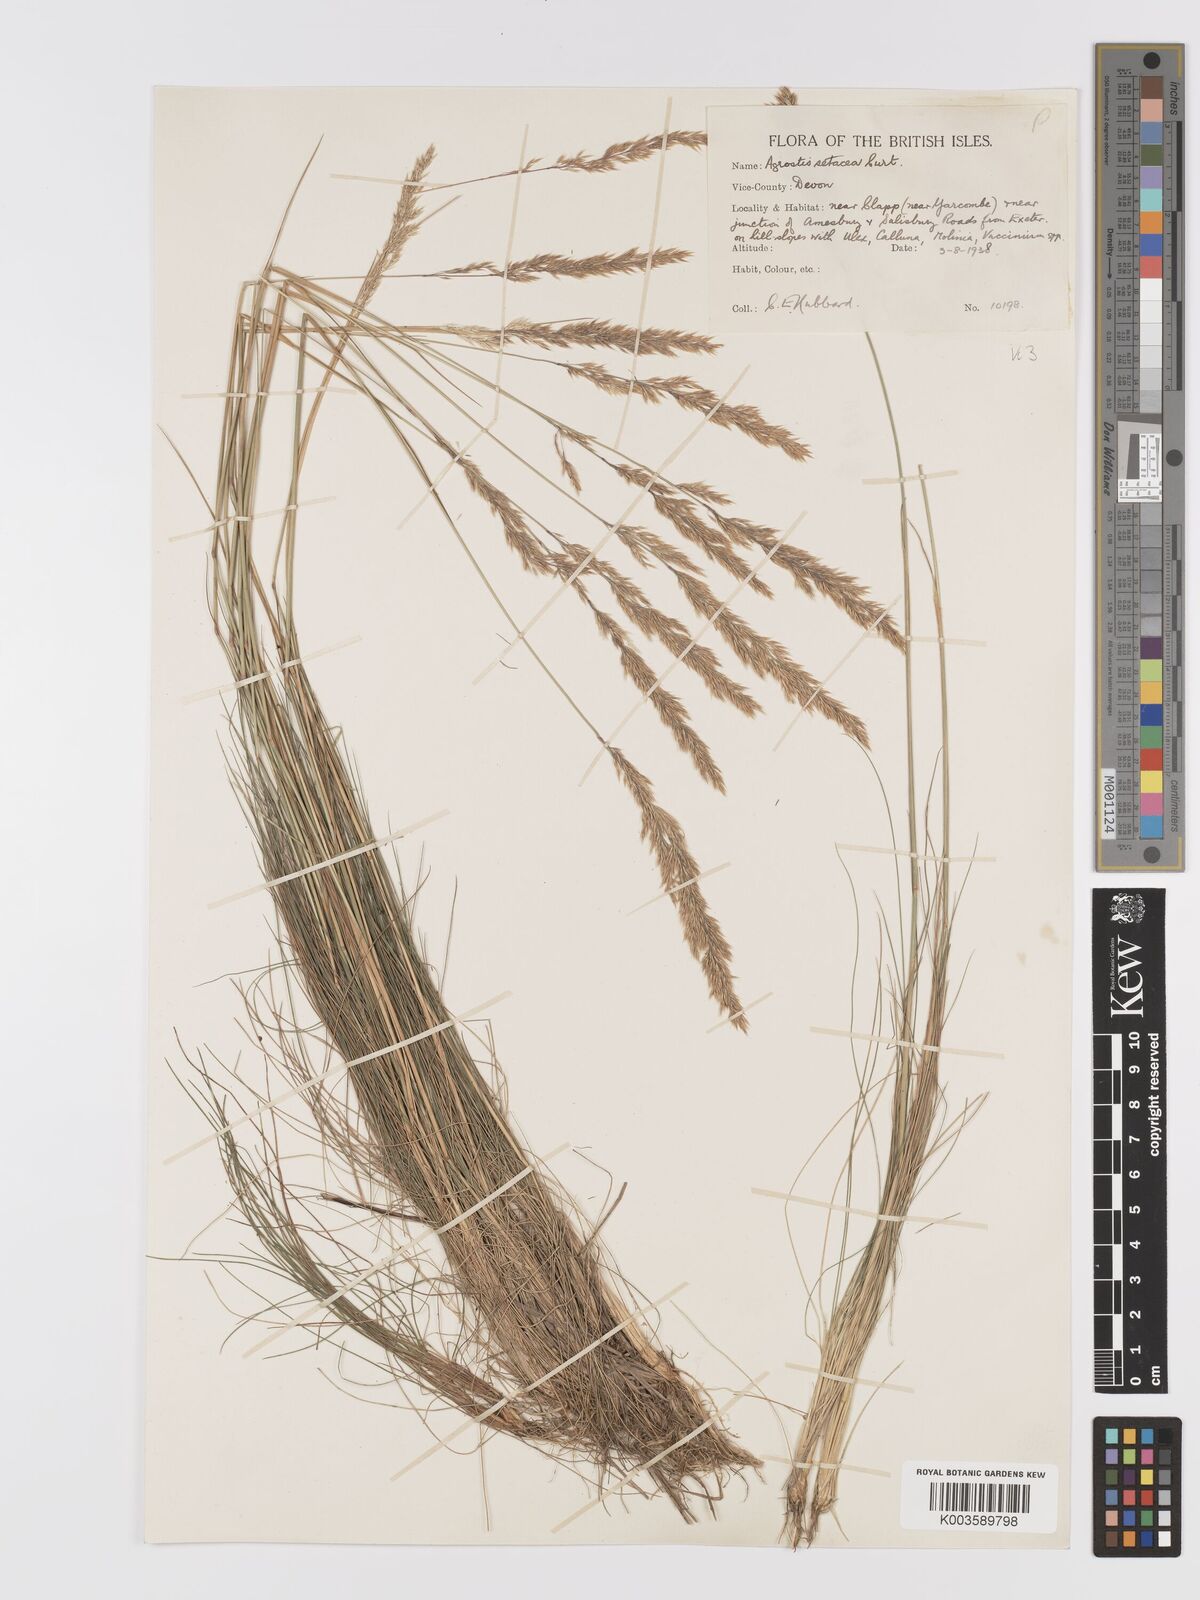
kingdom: Plantae
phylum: Tracheophyta
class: Liliopsida
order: Poales
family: Poaceae
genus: Alpagrostis
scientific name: Alpagrostis setacea
